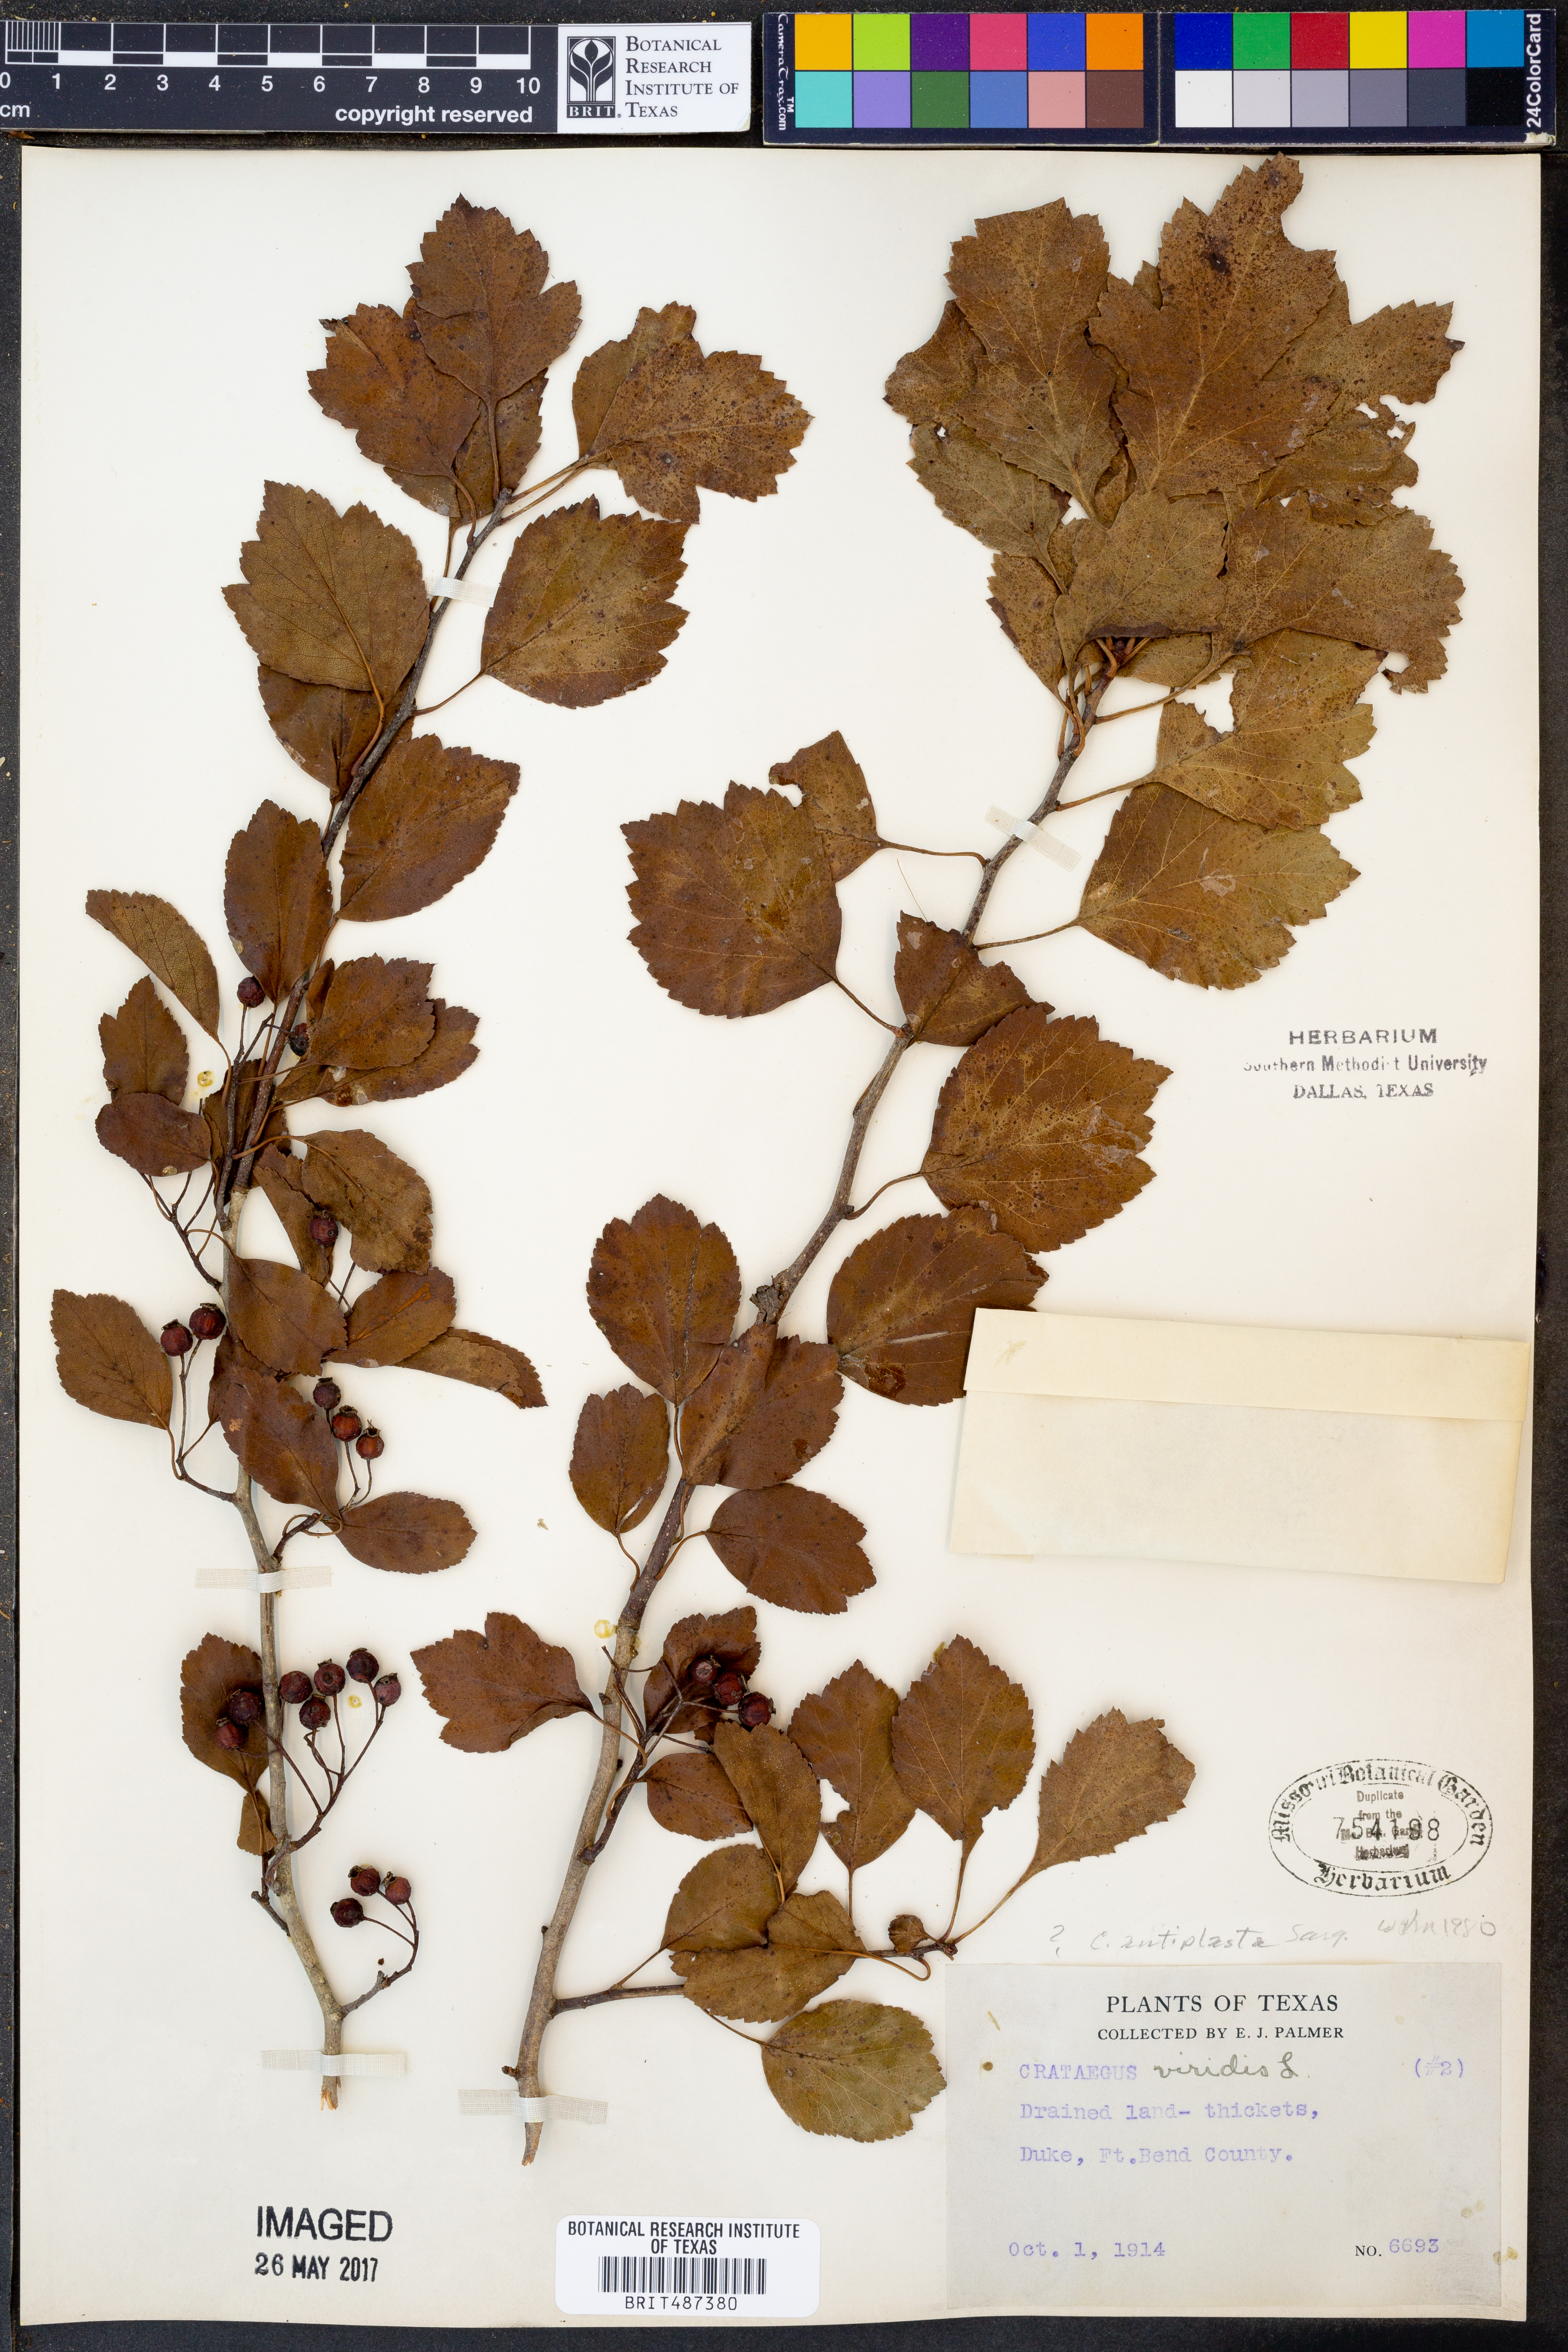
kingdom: Plantae
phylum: Tracheophyta
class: Magnoliopsida
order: Rosales
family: Rosaceae
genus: Crataegus
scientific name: Crataegus viridis
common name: Southernthorn
